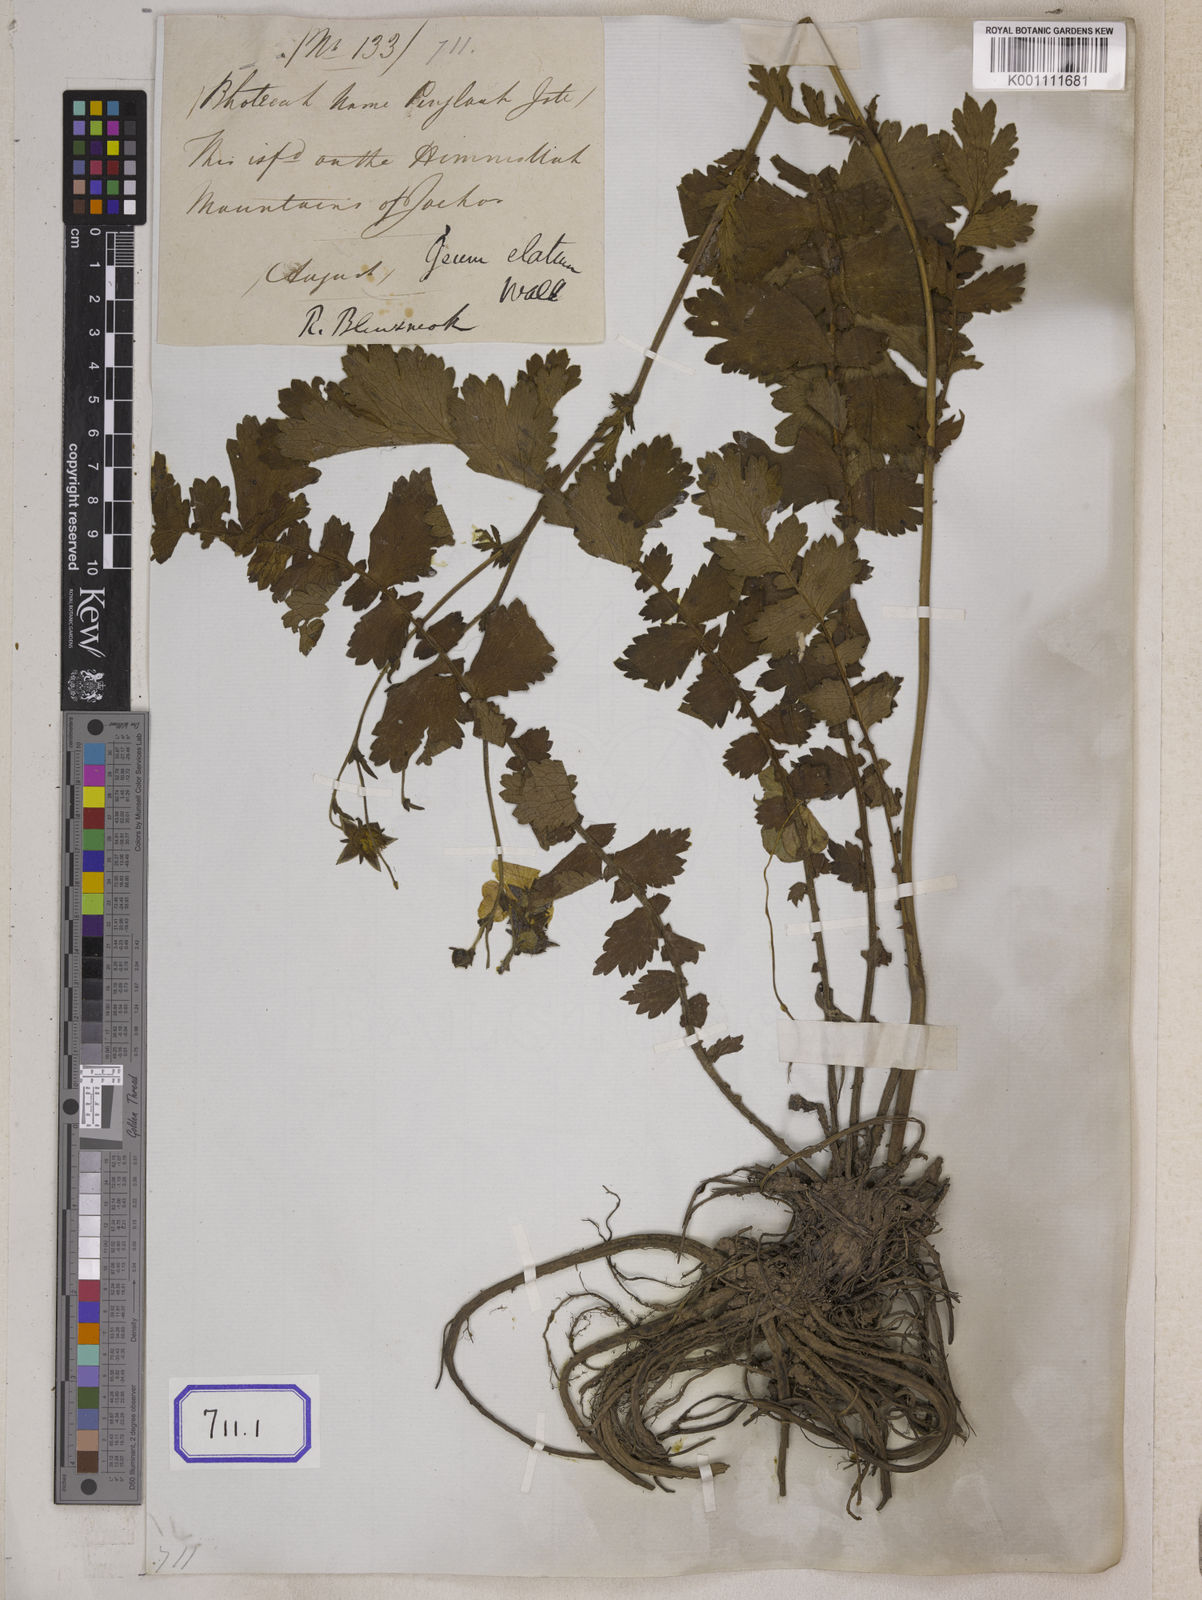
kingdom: Plantae
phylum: Tracheophyta
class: Magnoliopsida
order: Rosales
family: Rosaceae
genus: Geum
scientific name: Geum
